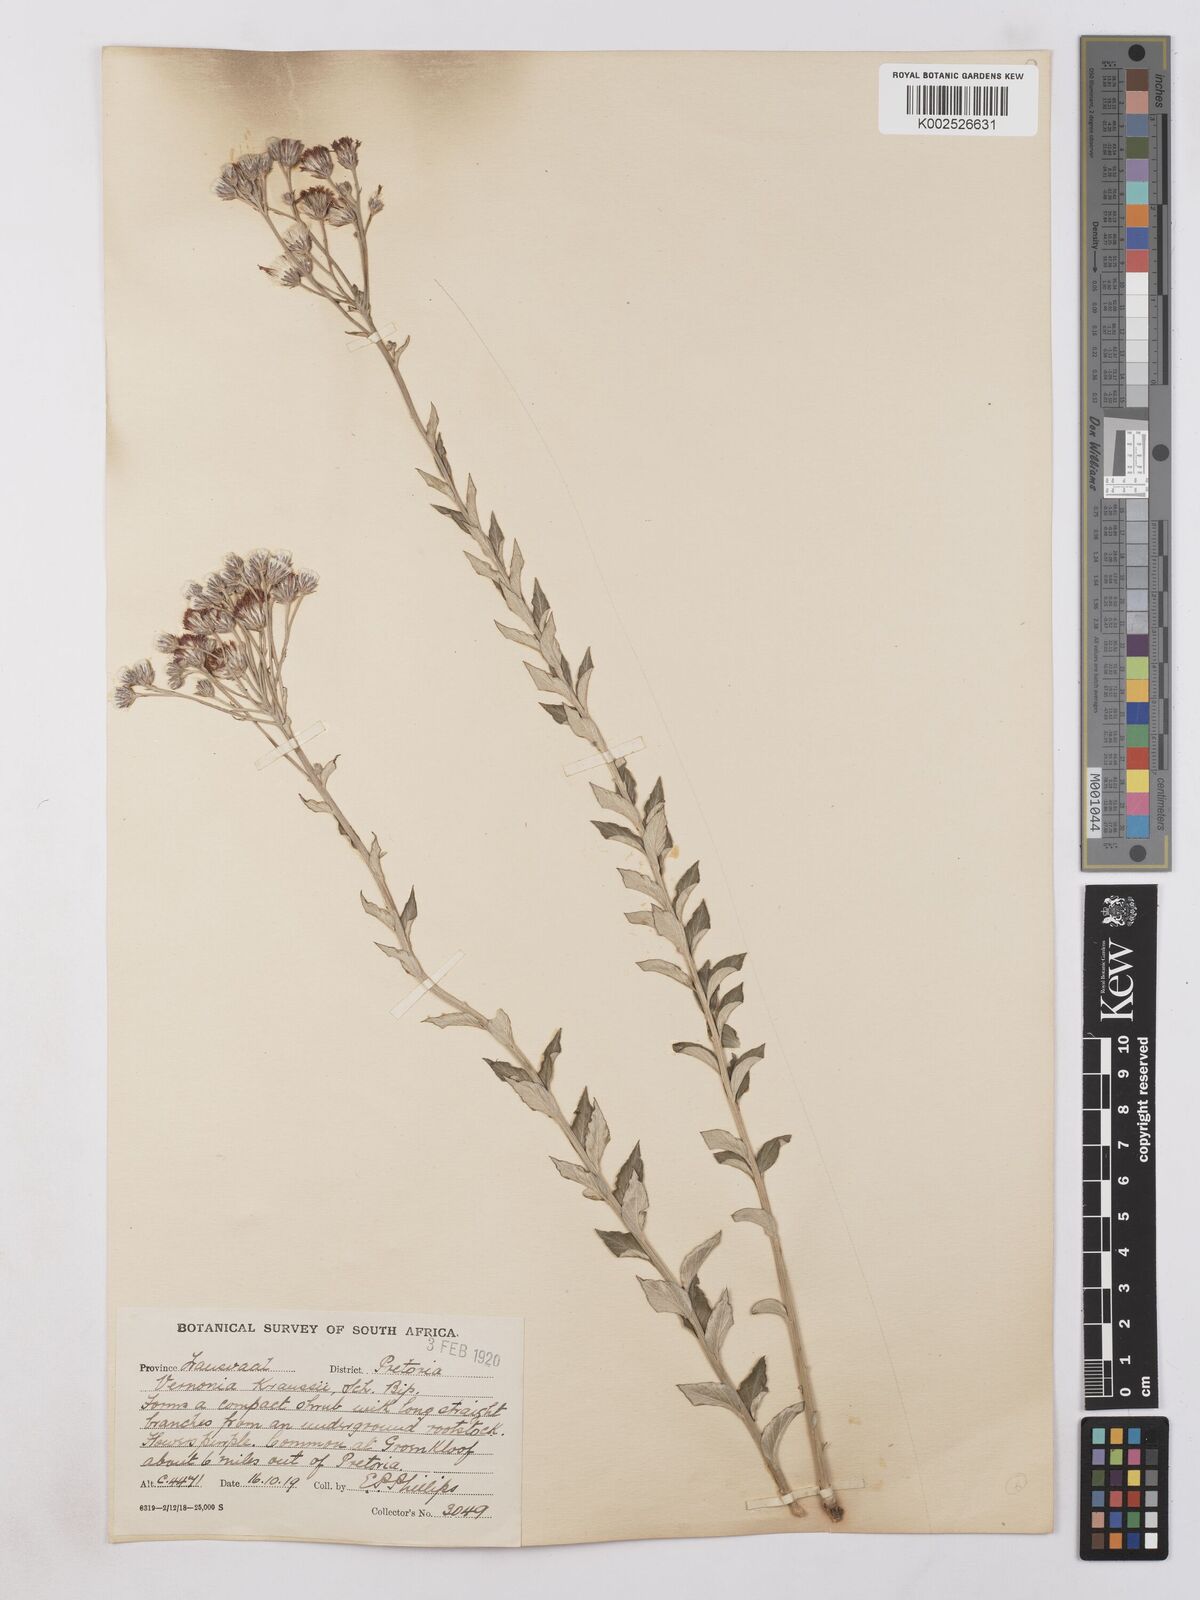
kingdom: Plantae
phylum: Tracheophyta
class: Magnoliopsida
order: Asterales
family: Asteraceae
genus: Hilliardiella
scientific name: Hilliardiella oligocephala
